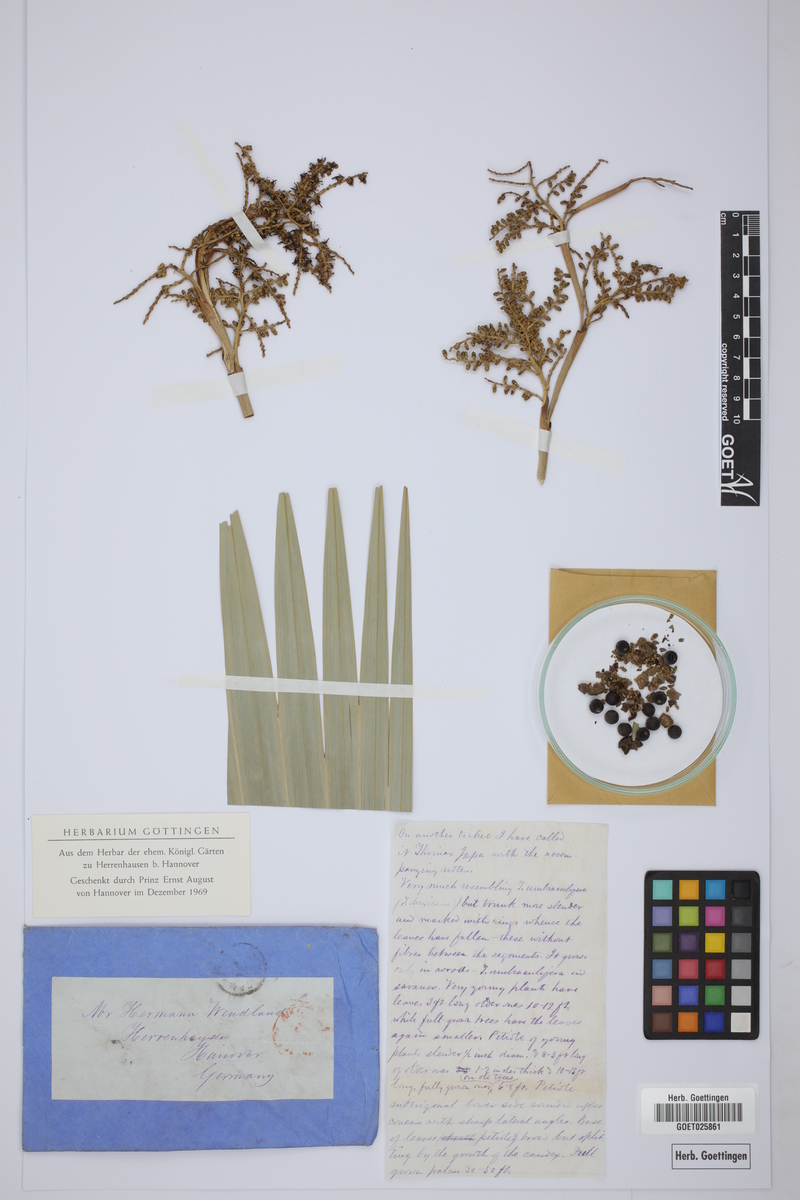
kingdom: Plantae
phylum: Tracheophyta
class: Liliopsida
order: Arecales
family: Arecaceae
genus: Thrinax
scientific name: Thrinax
